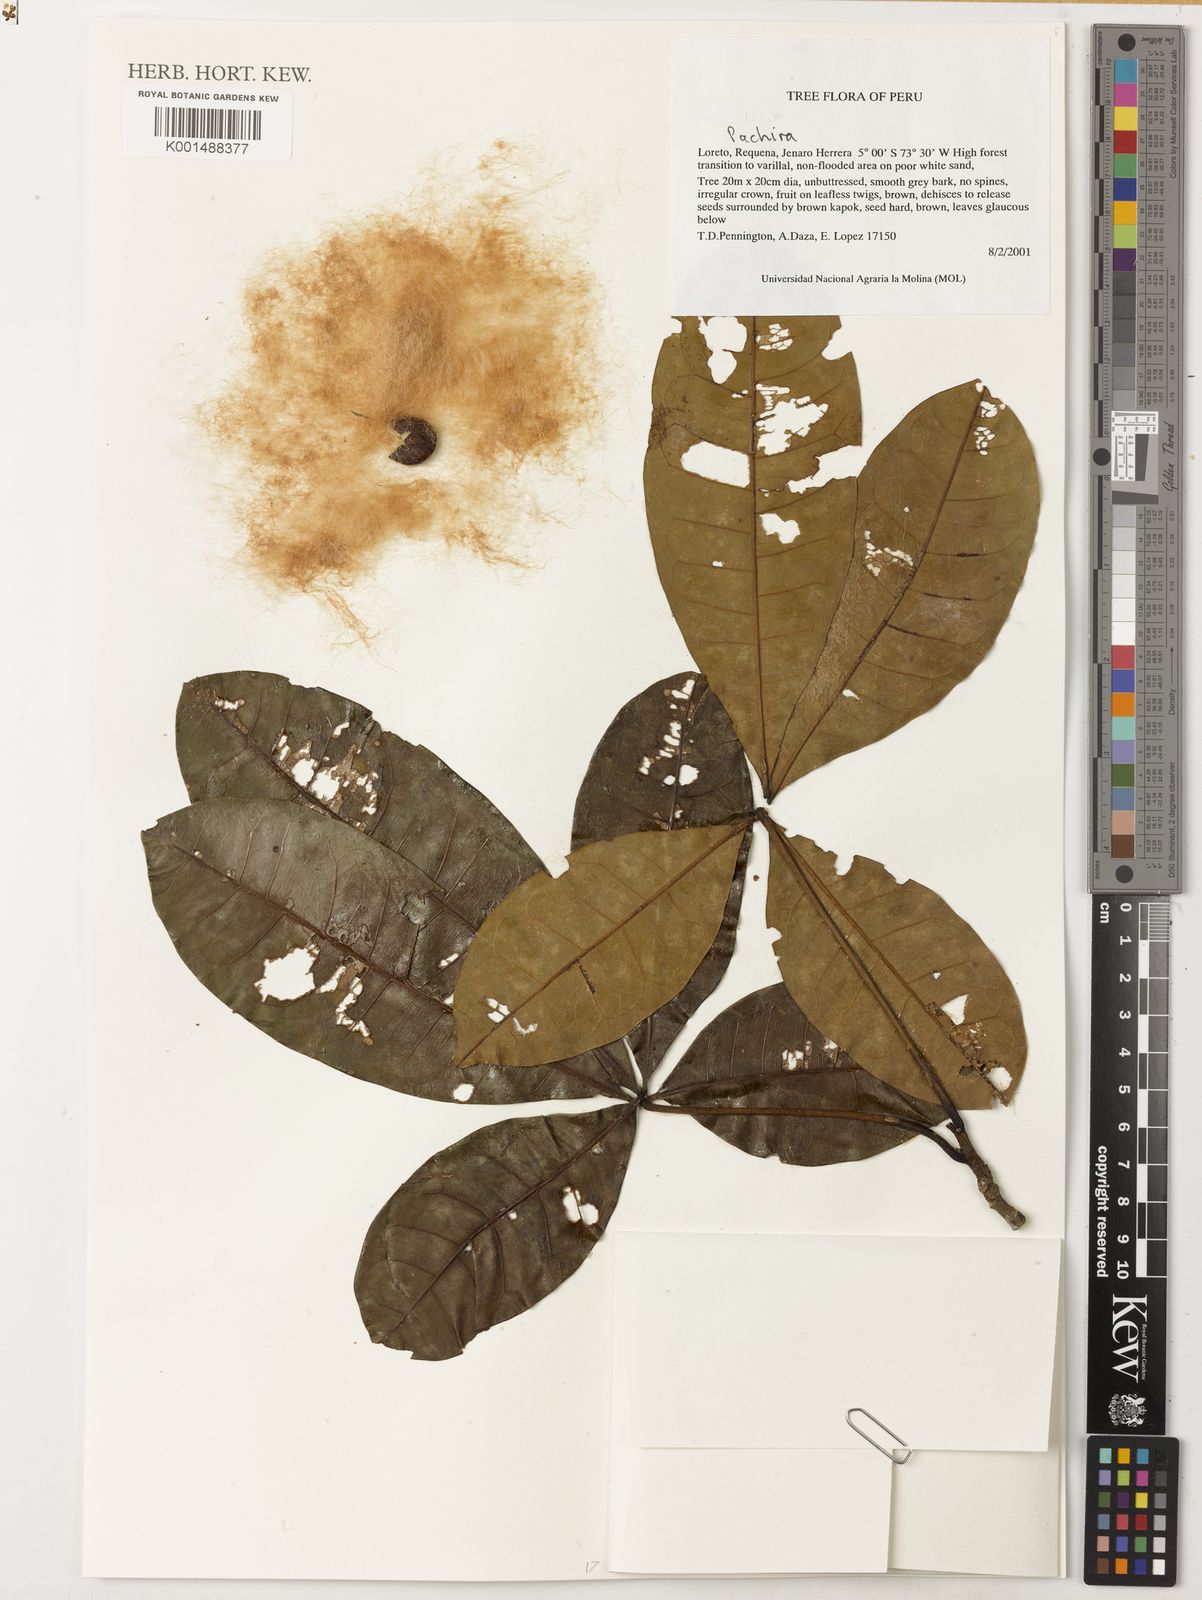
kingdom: Plantae
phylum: Tracheophyta
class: Magnoliopsida
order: Malvales
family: Malvaceae
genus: Pachira
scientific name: Pachira macrocalyx
